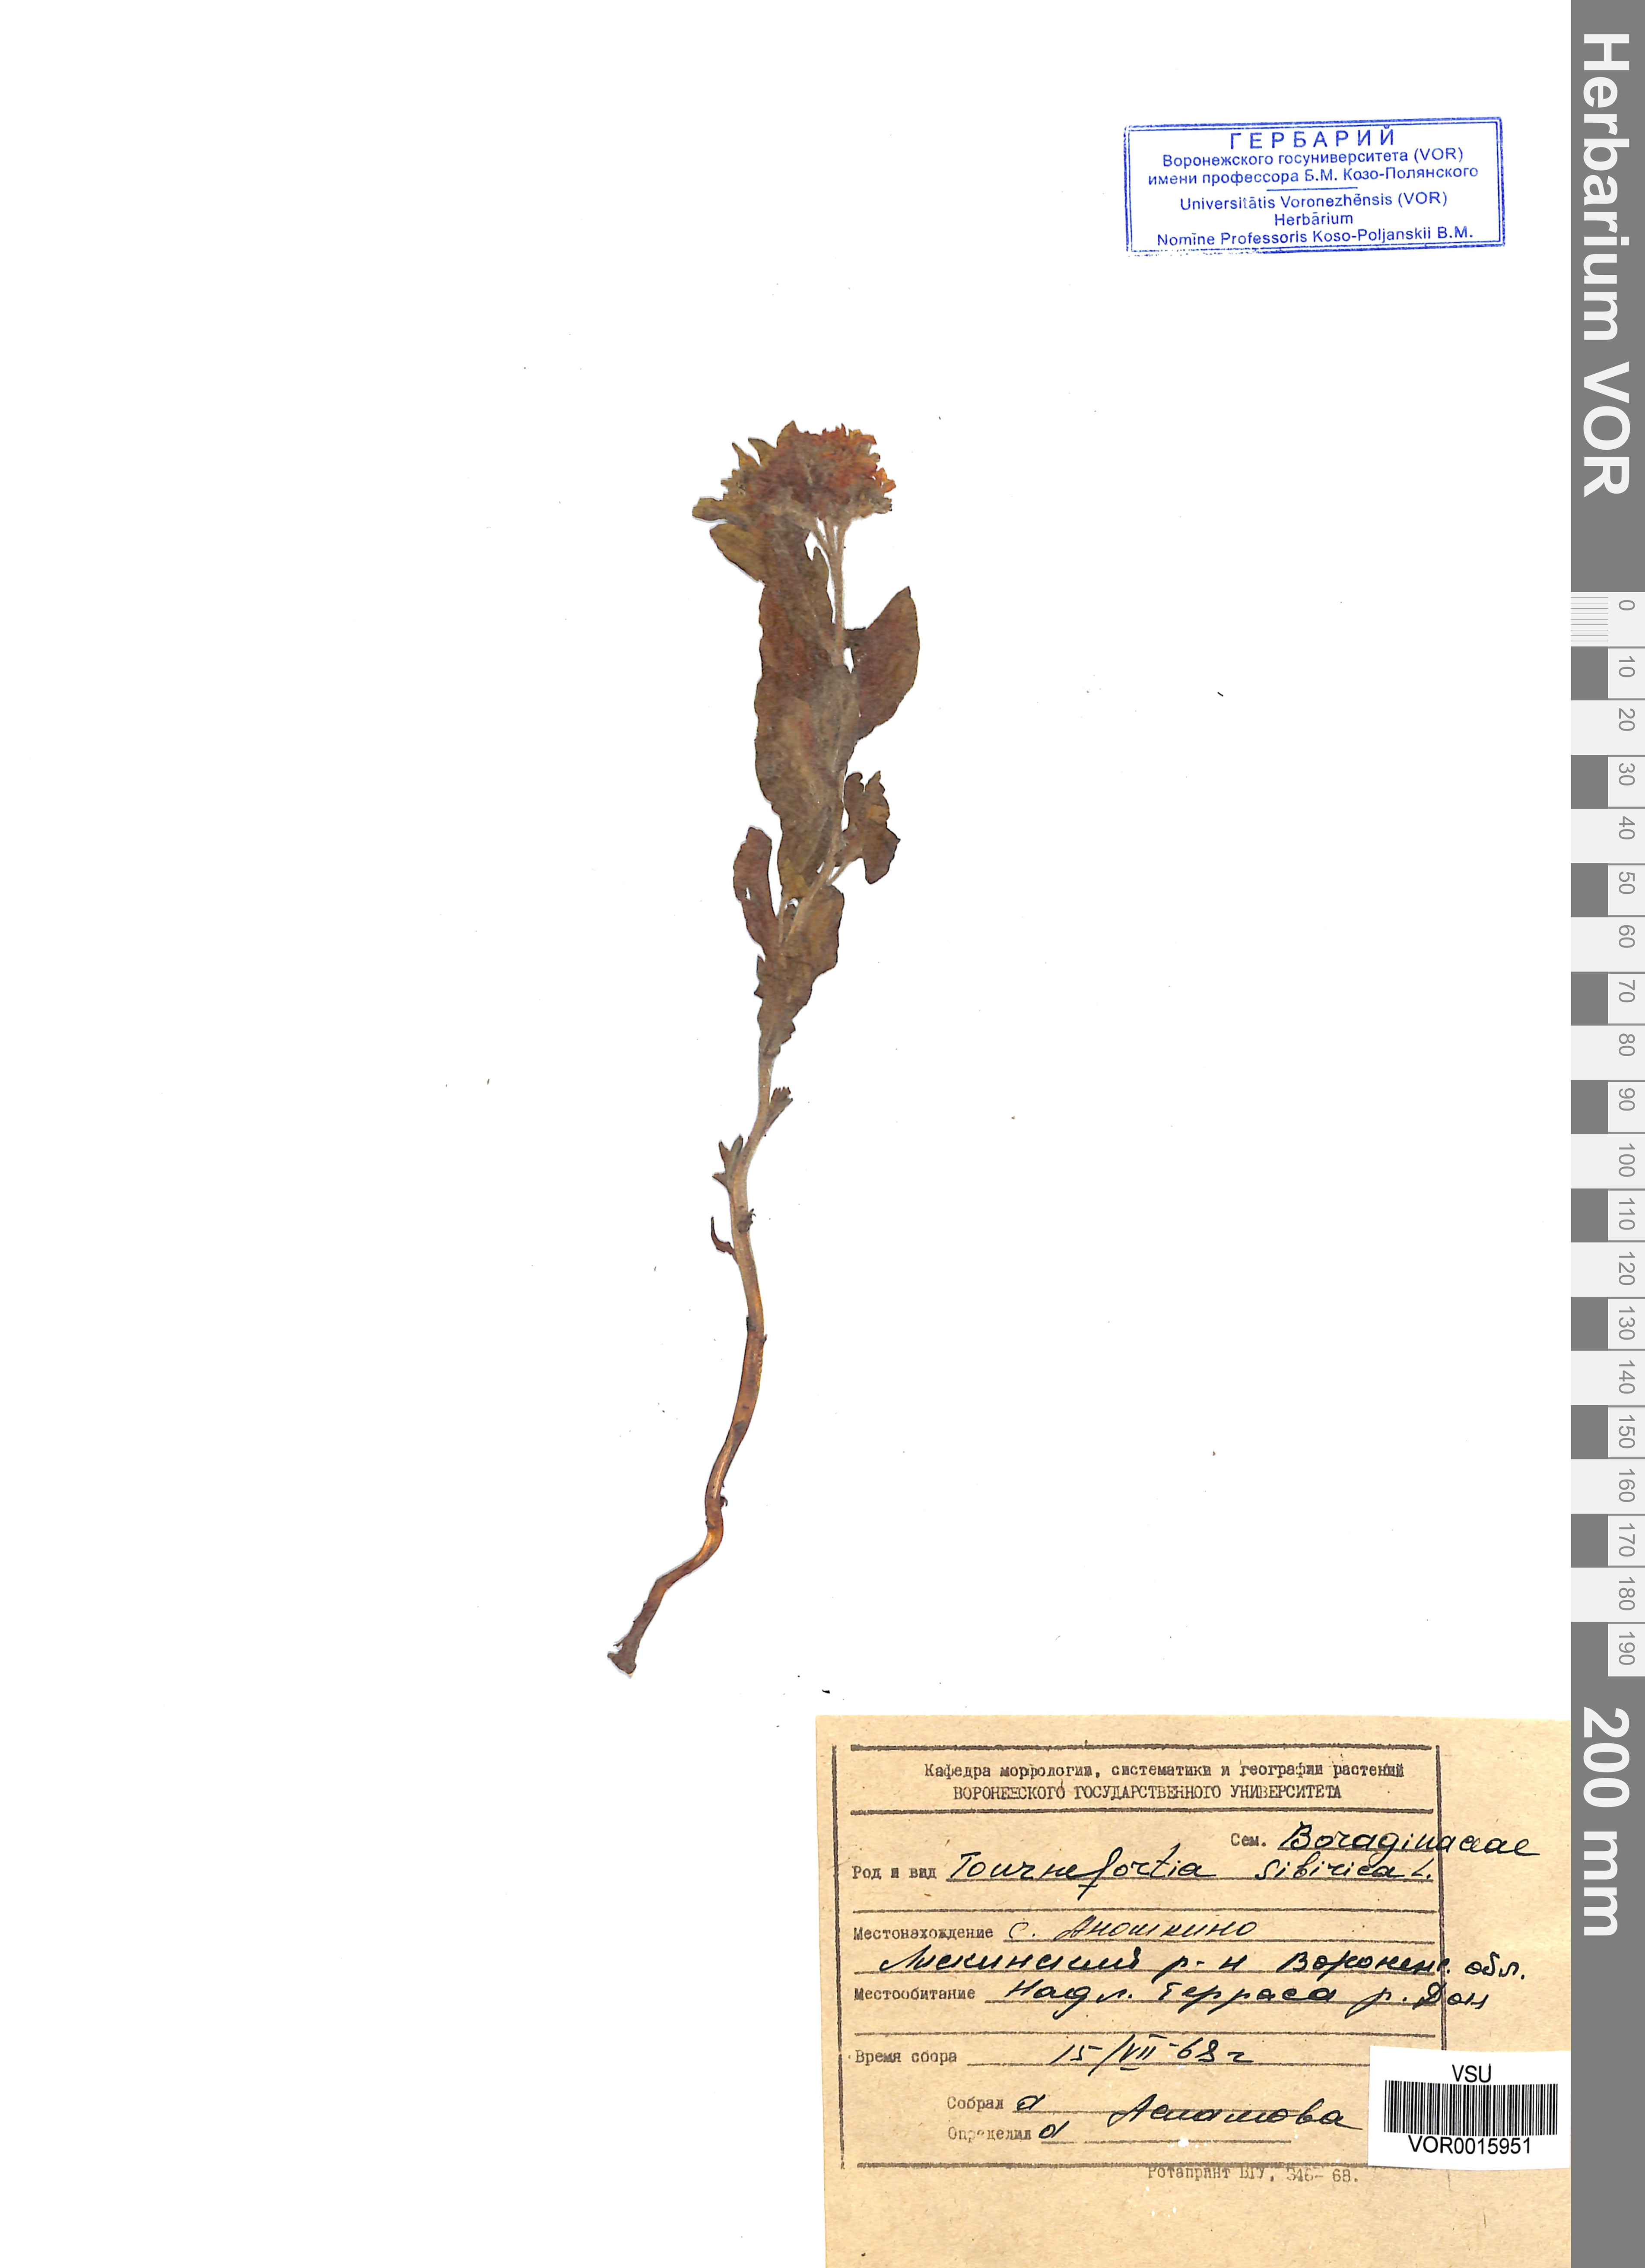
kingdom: Plantae
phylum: Tracheophyta
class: Magnoliopsida
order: Boraginales
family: Heliotropiaceae
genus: Tournefortia
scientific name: Tournefortia sibirica
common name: Siberian sea rosemary
